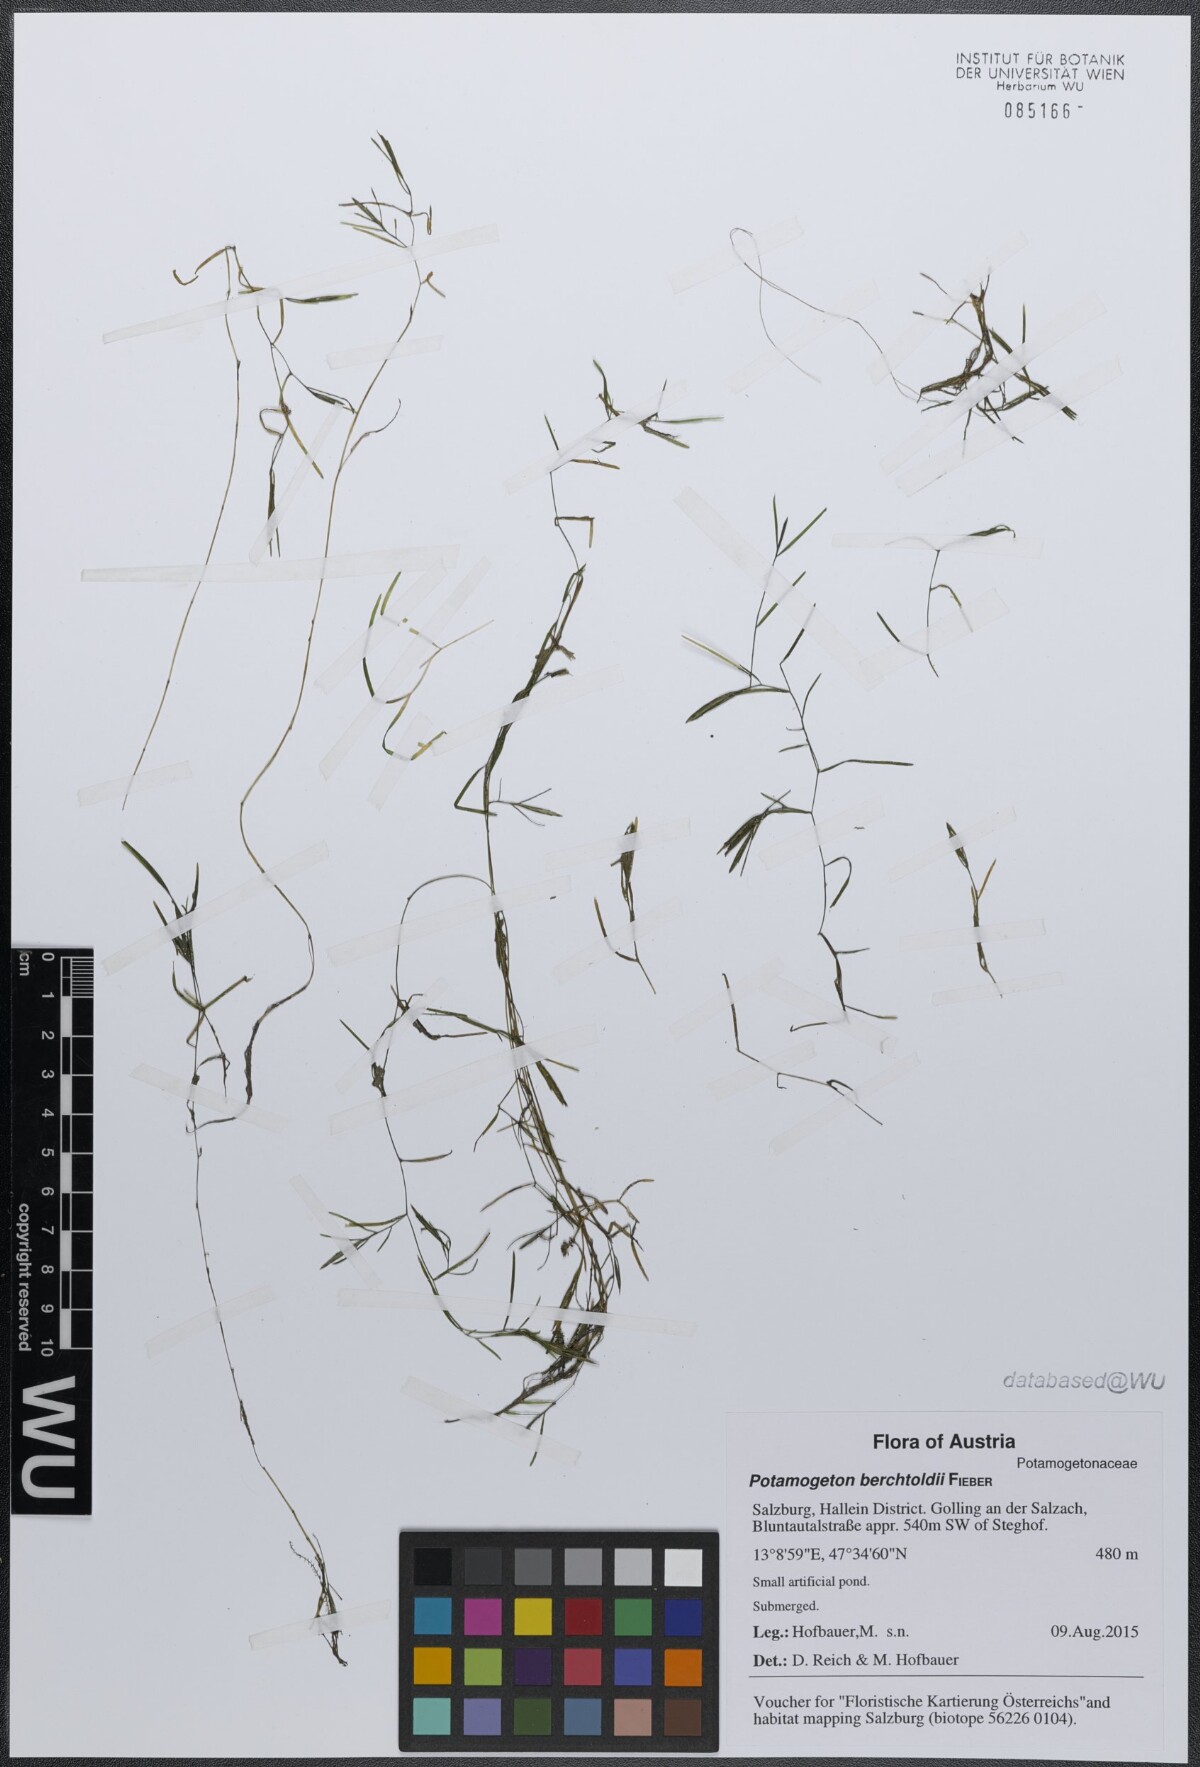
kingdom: Plantae
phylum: Tracheophyta
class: Liliopsida
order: Alismatales
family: Potamogetonaceae
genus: Potamogeton
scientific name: Potamogeton berchtoldii
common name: Small pondweed
